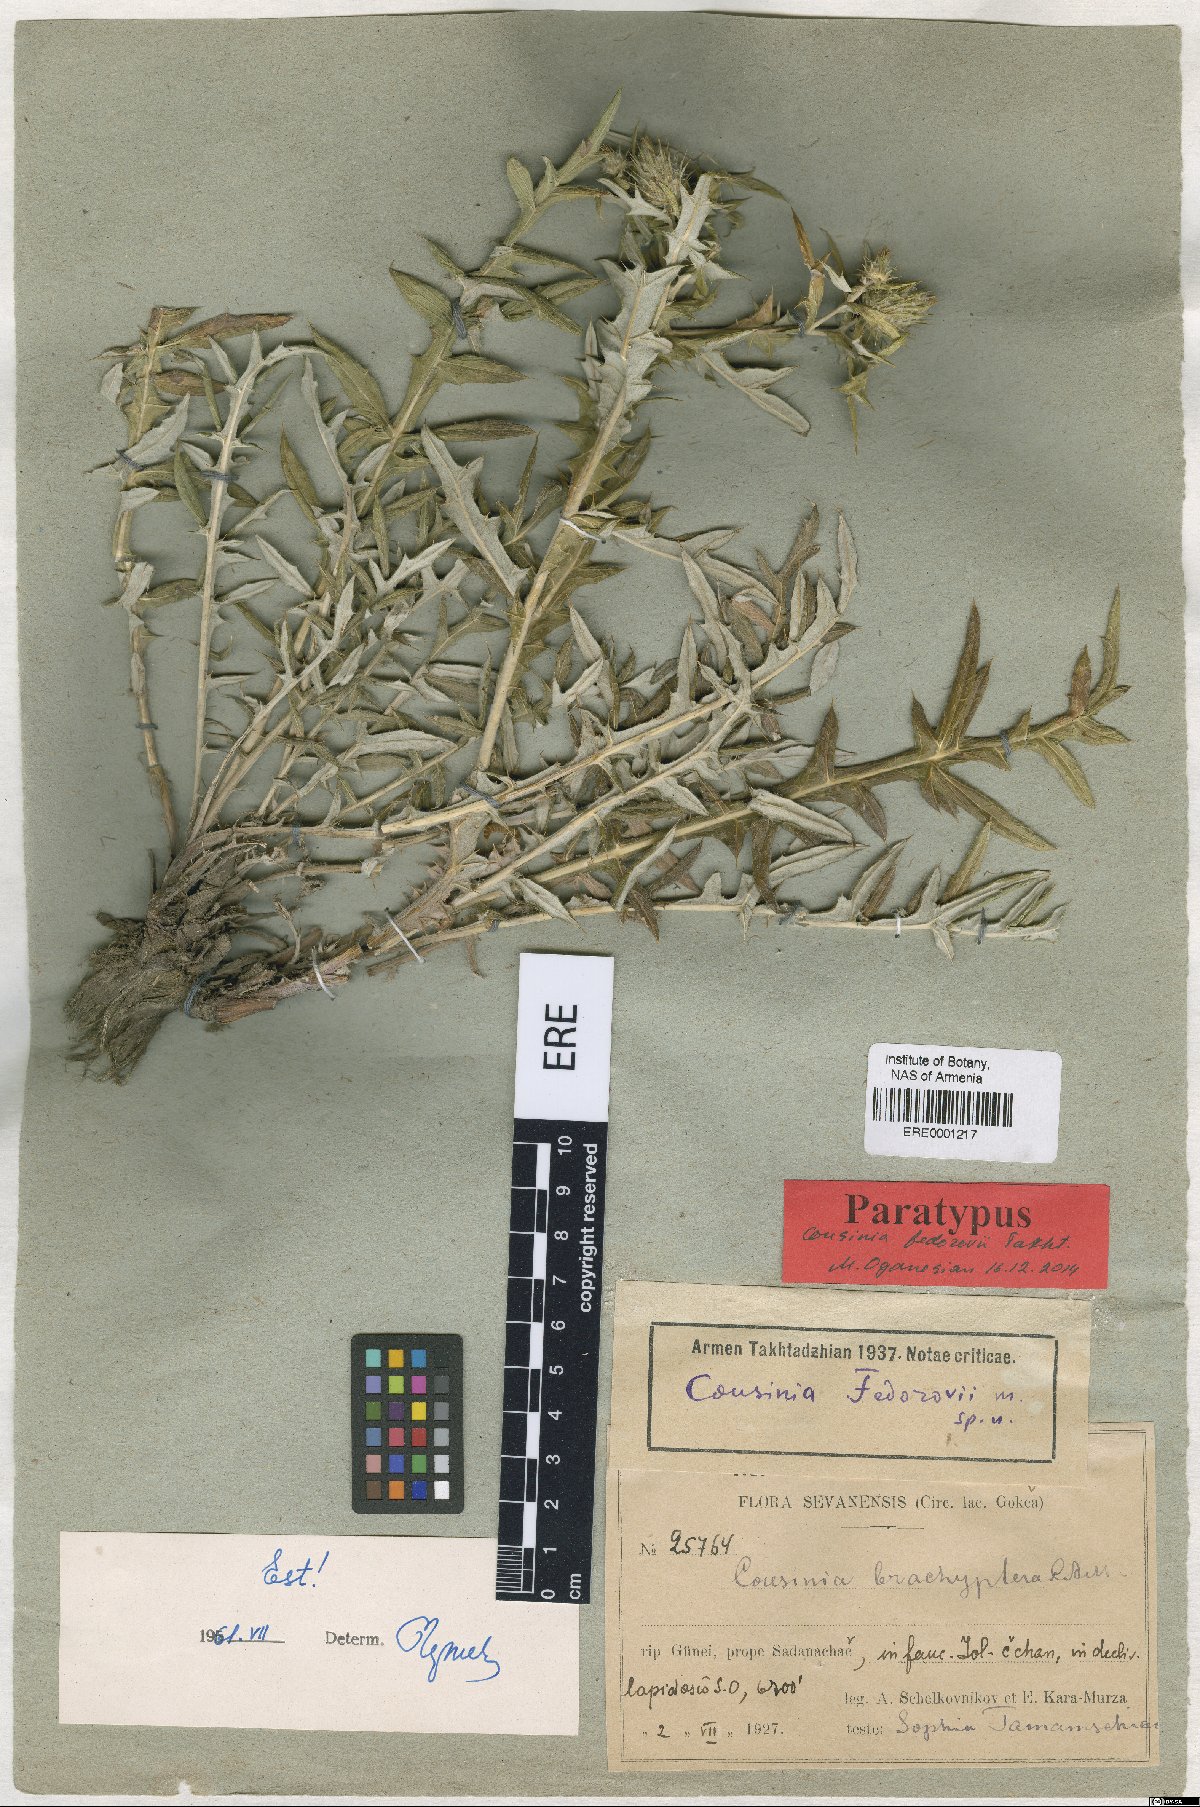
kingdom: Plantae
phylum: Tracheophyta
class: Magnoliopsida
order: Asterales
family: Asteraceae
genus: Cousinia
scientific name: Cousinia fedorovii
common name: Fedorov's cousinia
